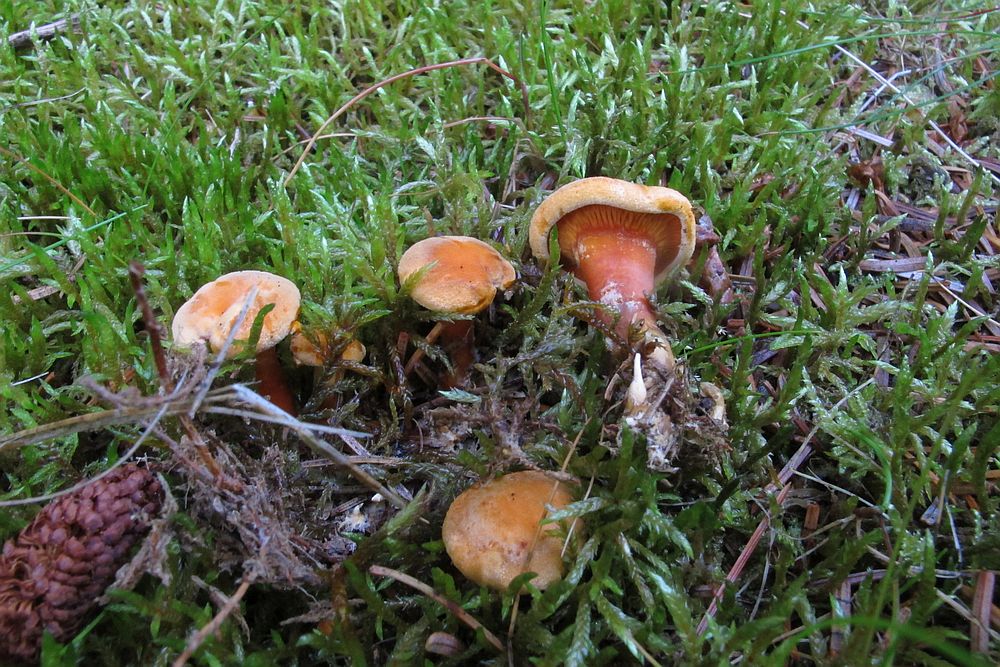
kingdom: Fungi
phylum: Basidiomycota
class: Agaricomycetes
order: Boletales
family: Hygrophoropsidaceae
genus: Hygrophoropsis
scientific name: Hygrophoropsis aurantiaca
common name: almindelig orangekantarel
